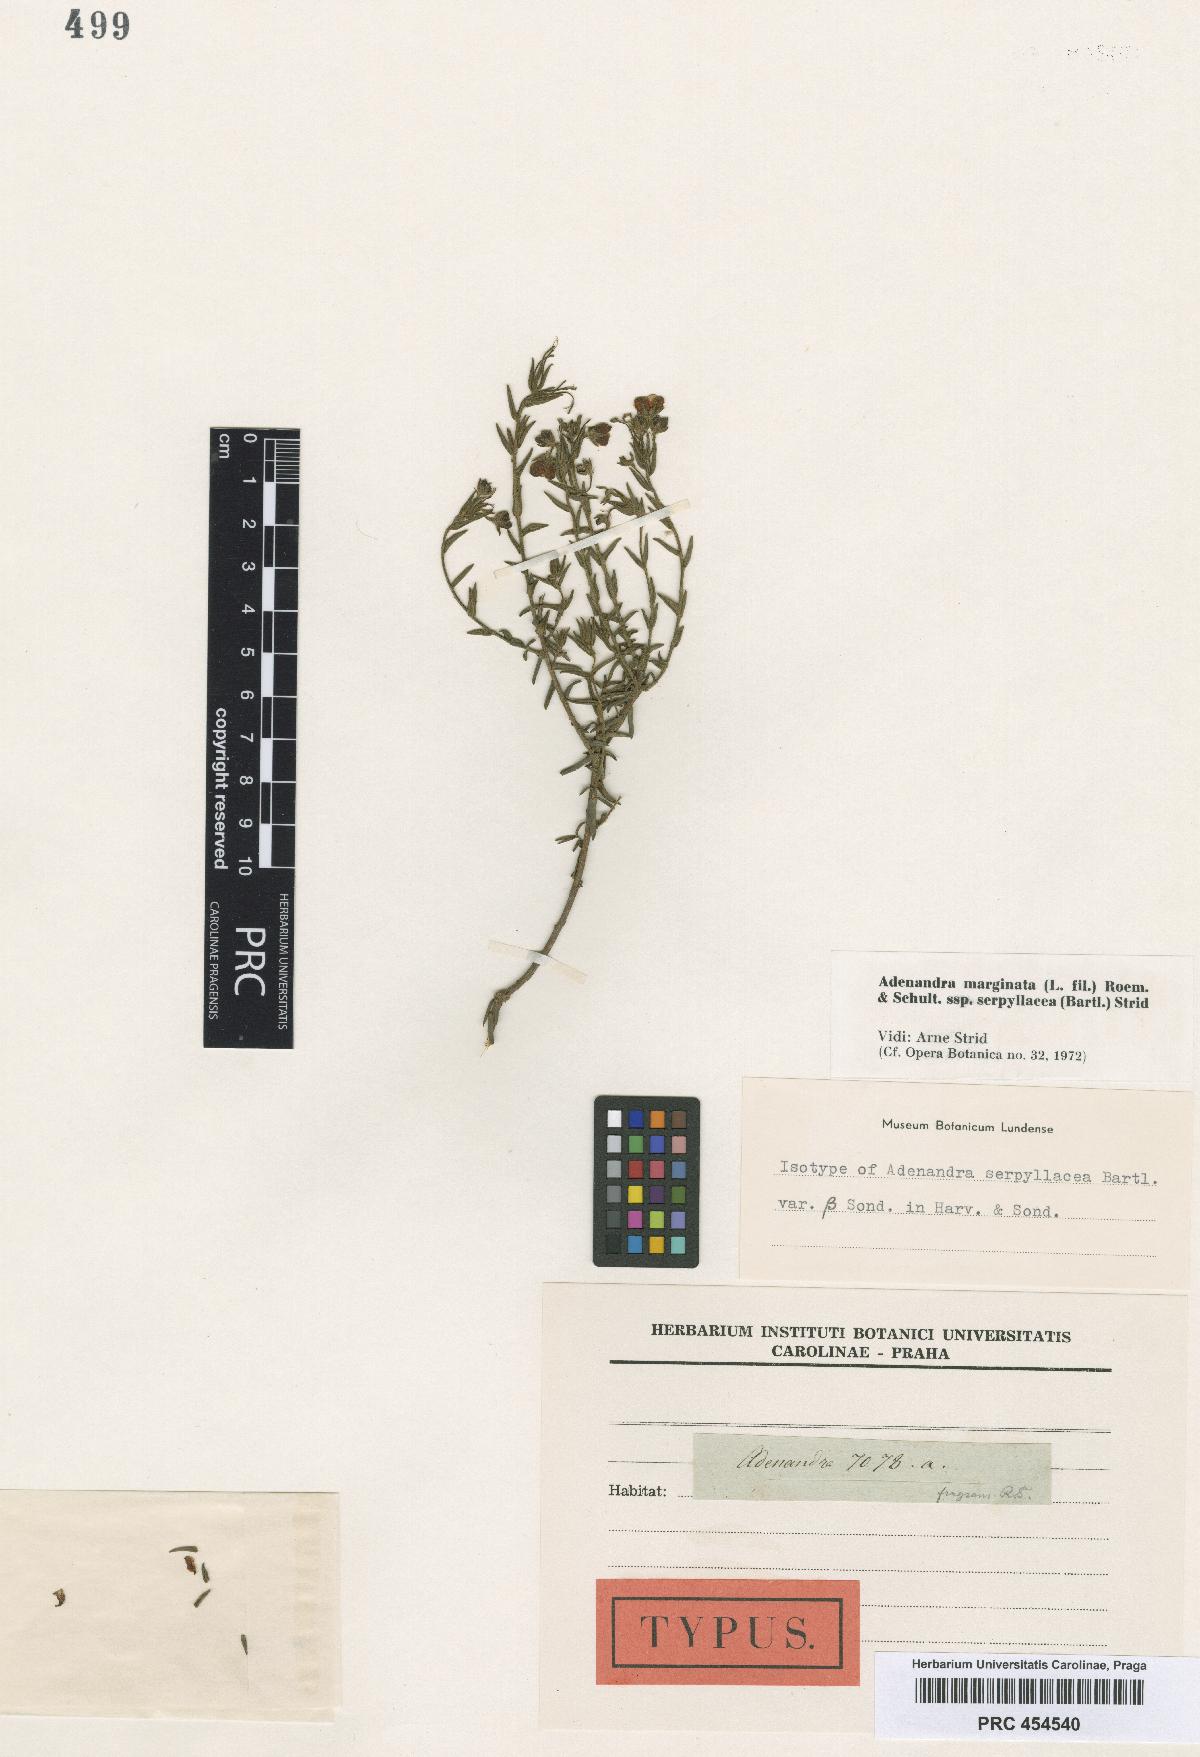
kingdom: Plantae
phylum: Tracheophyta
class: Magnoliopsida
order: Sapindales
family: Rutaceae
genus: Adenandra
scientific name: Adenandra fragrans
